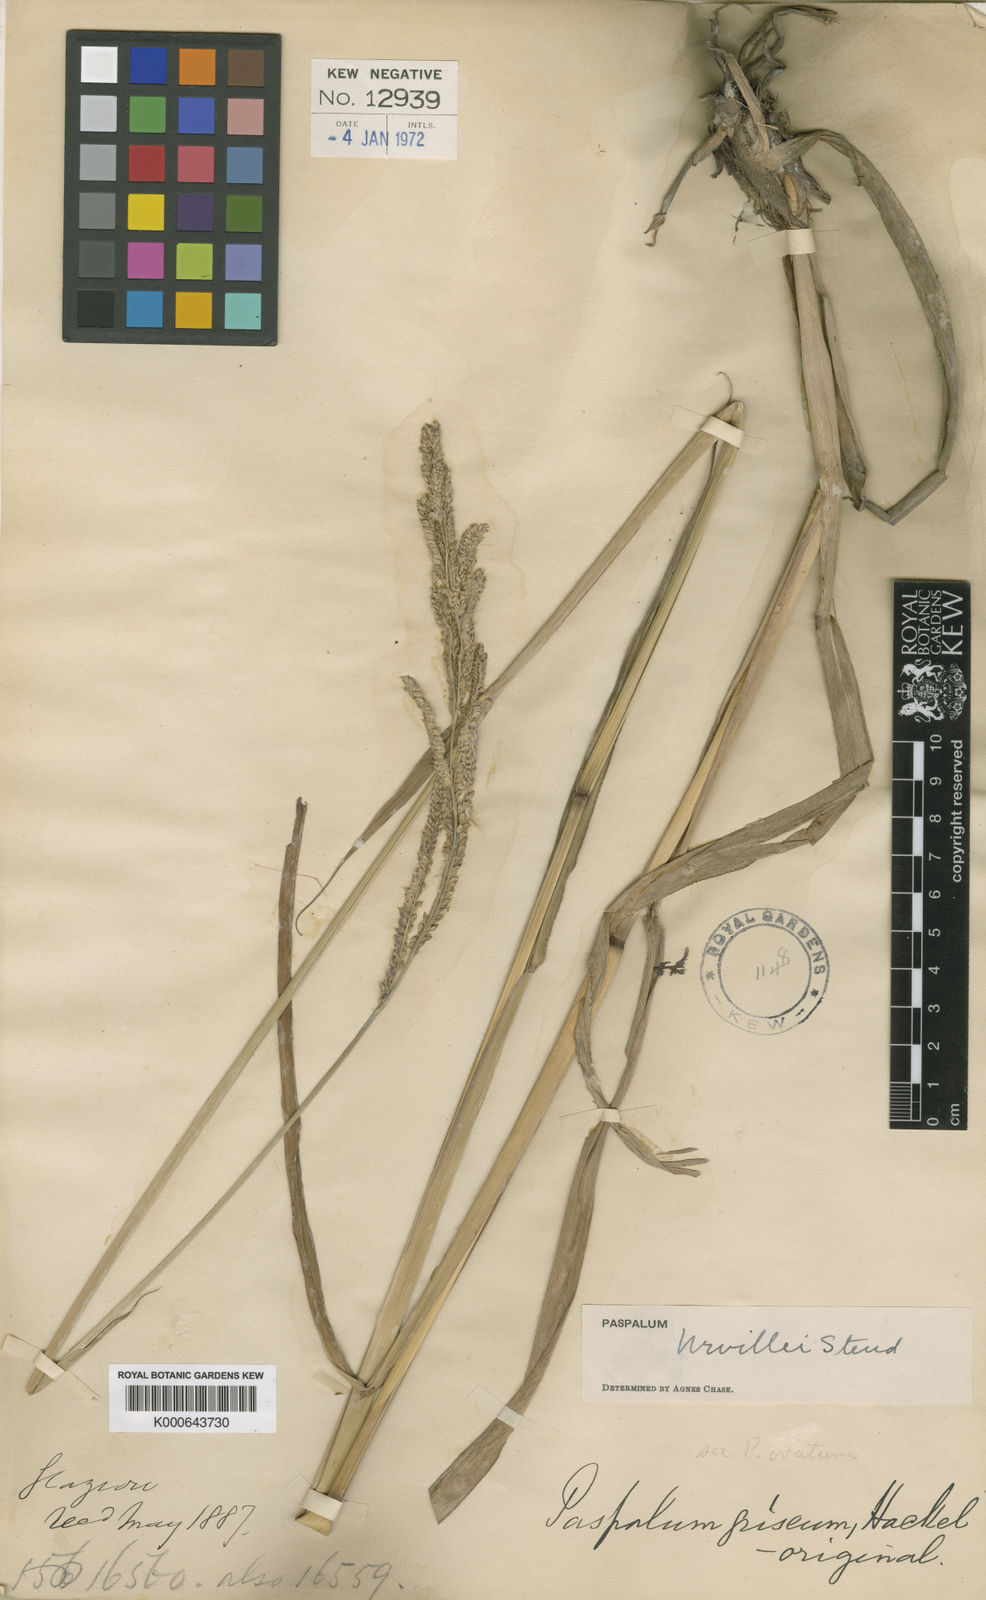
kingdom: Plantae
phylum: Tracheophyta
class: Liliopsida
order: Poales
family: Poaceae
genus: Paspalum
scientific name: Paspalum urvillei
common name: Vasey's grass
